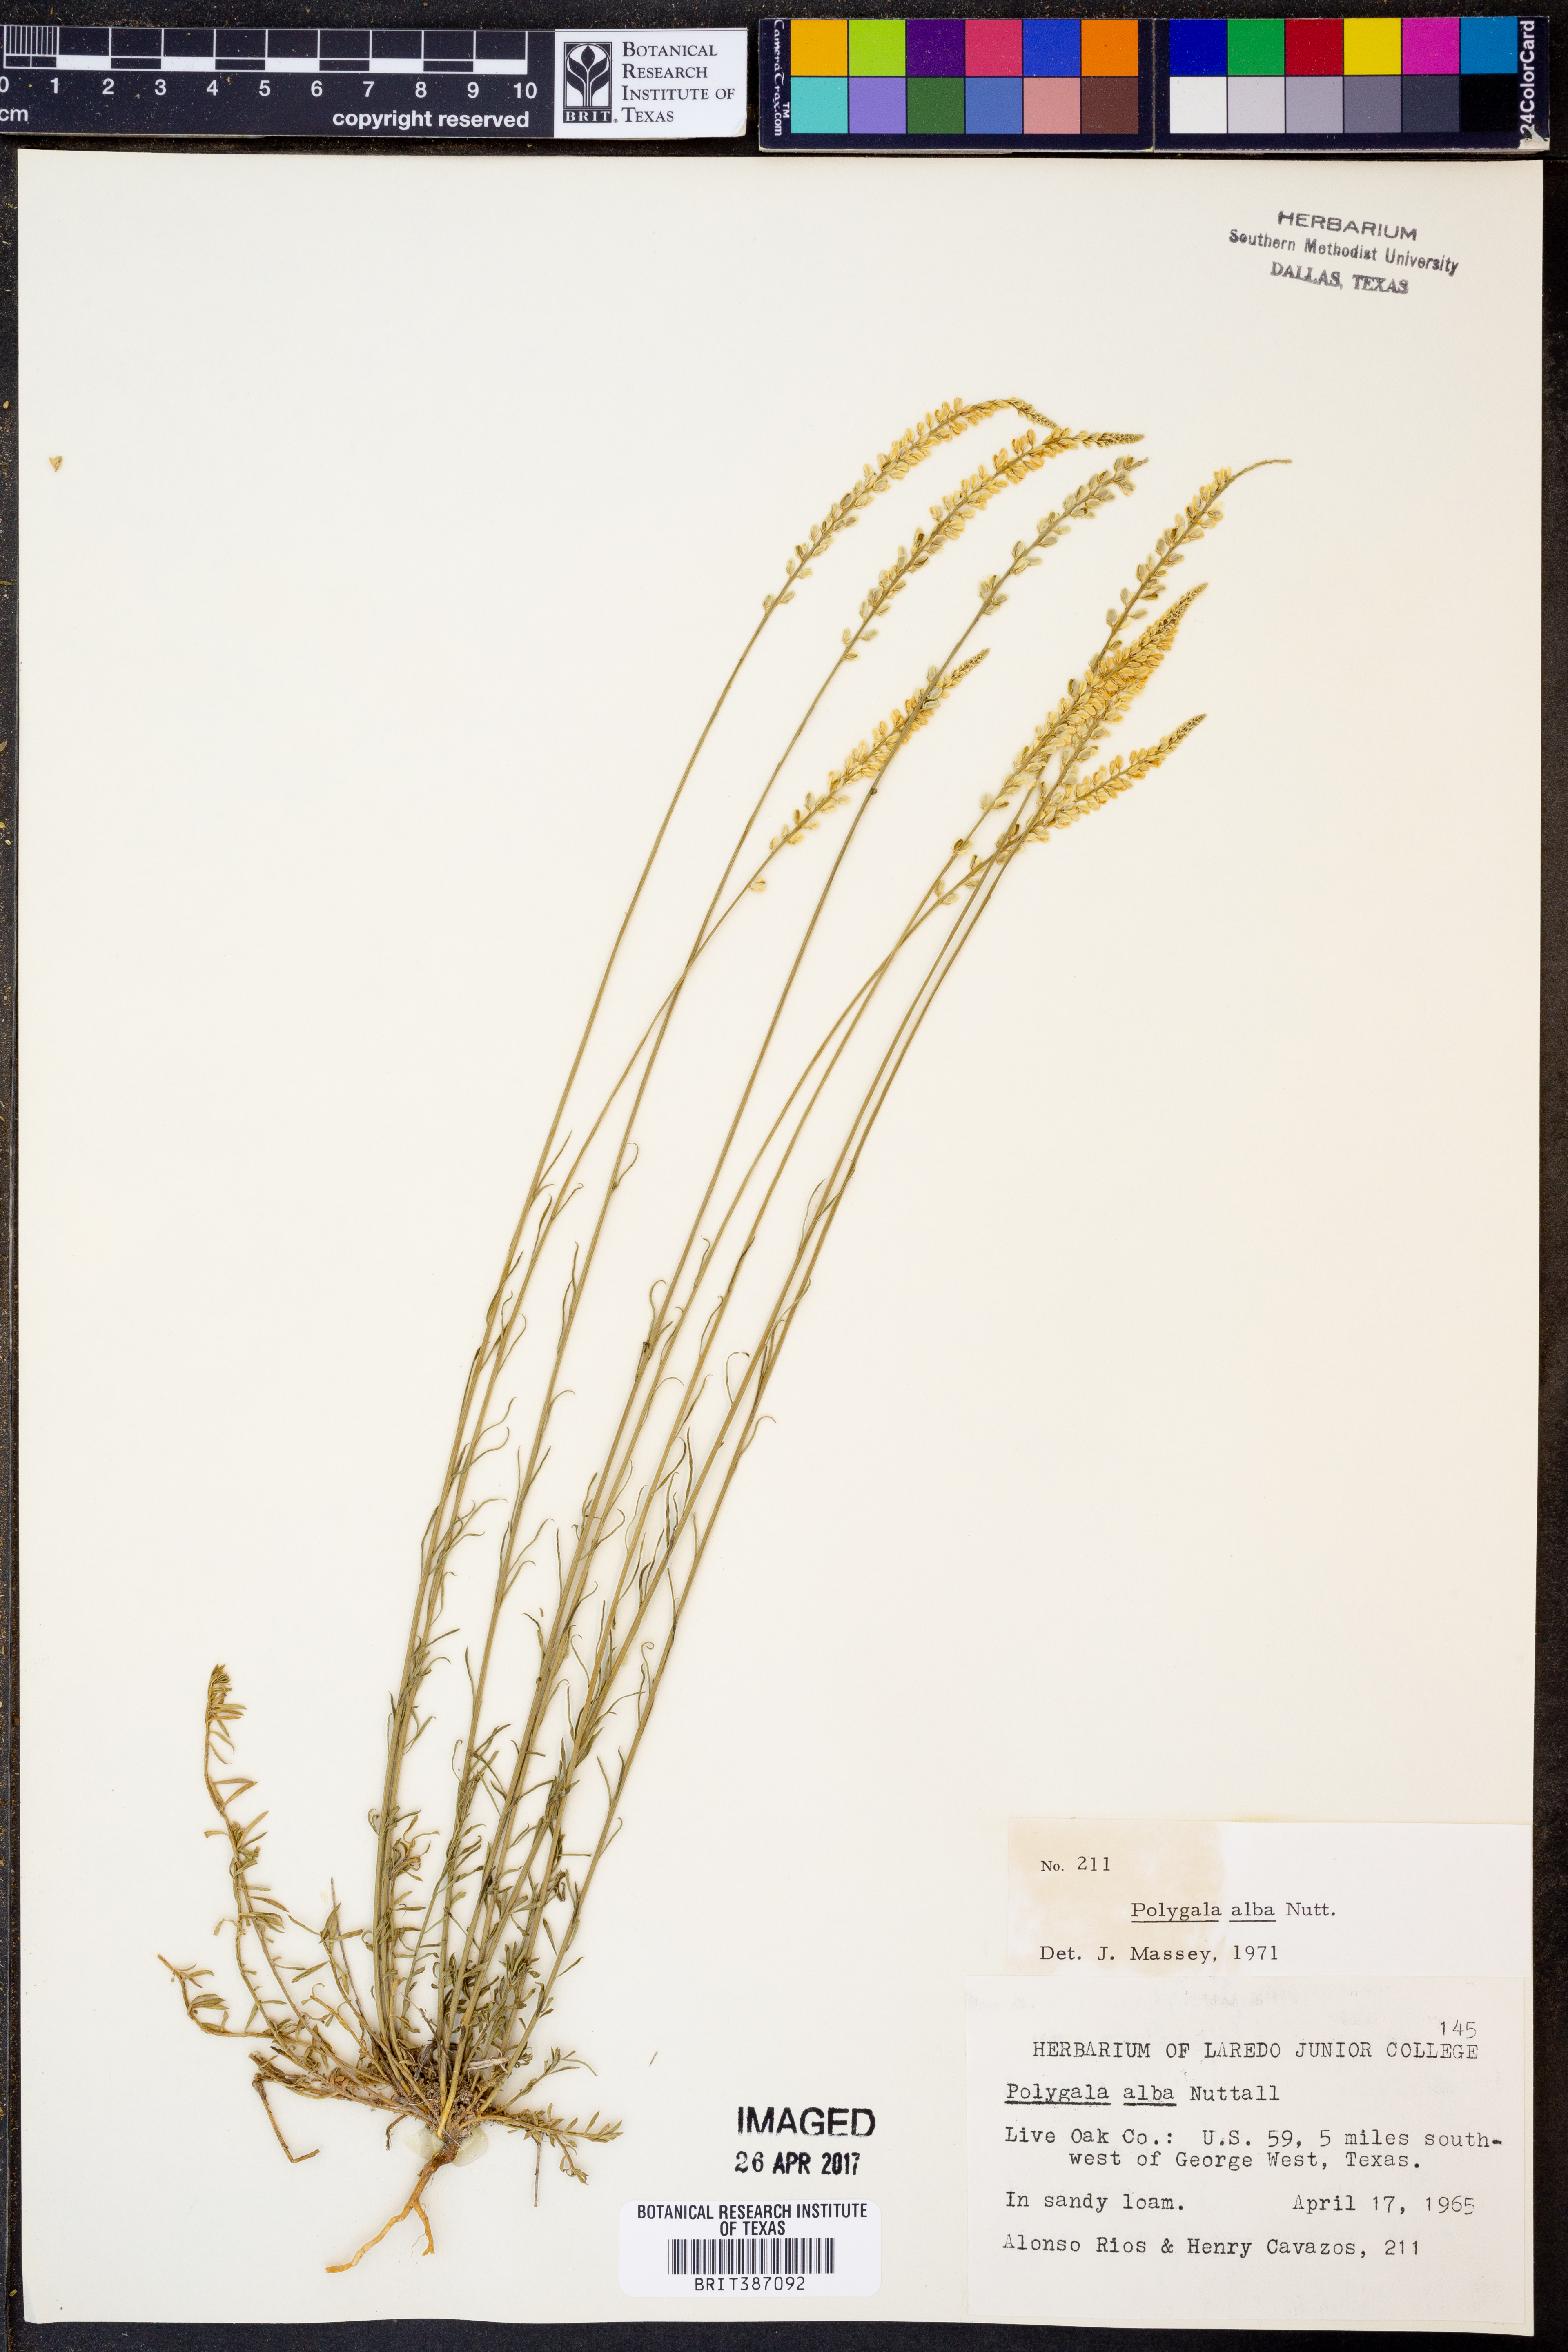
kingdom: Plantae
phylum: Tracheophyta
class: Magnoliopsida
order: Fabales
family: Polygalaceae
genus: Polygala
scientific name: Polygala alba
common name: White milkwort
